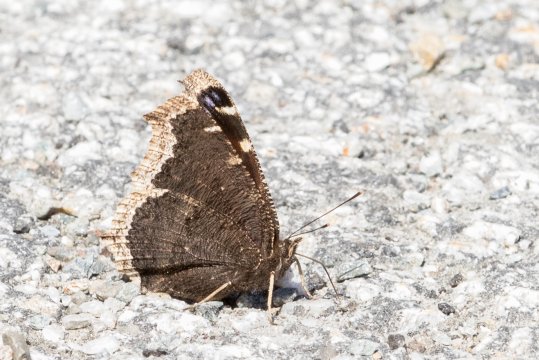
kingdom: Animalia
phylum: Arthropoda
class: Insecta
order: Lepidoptera
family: Nymphalidae
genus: Nymphalis
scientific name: Nymphalis antiopa
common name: Mourning Cloak
